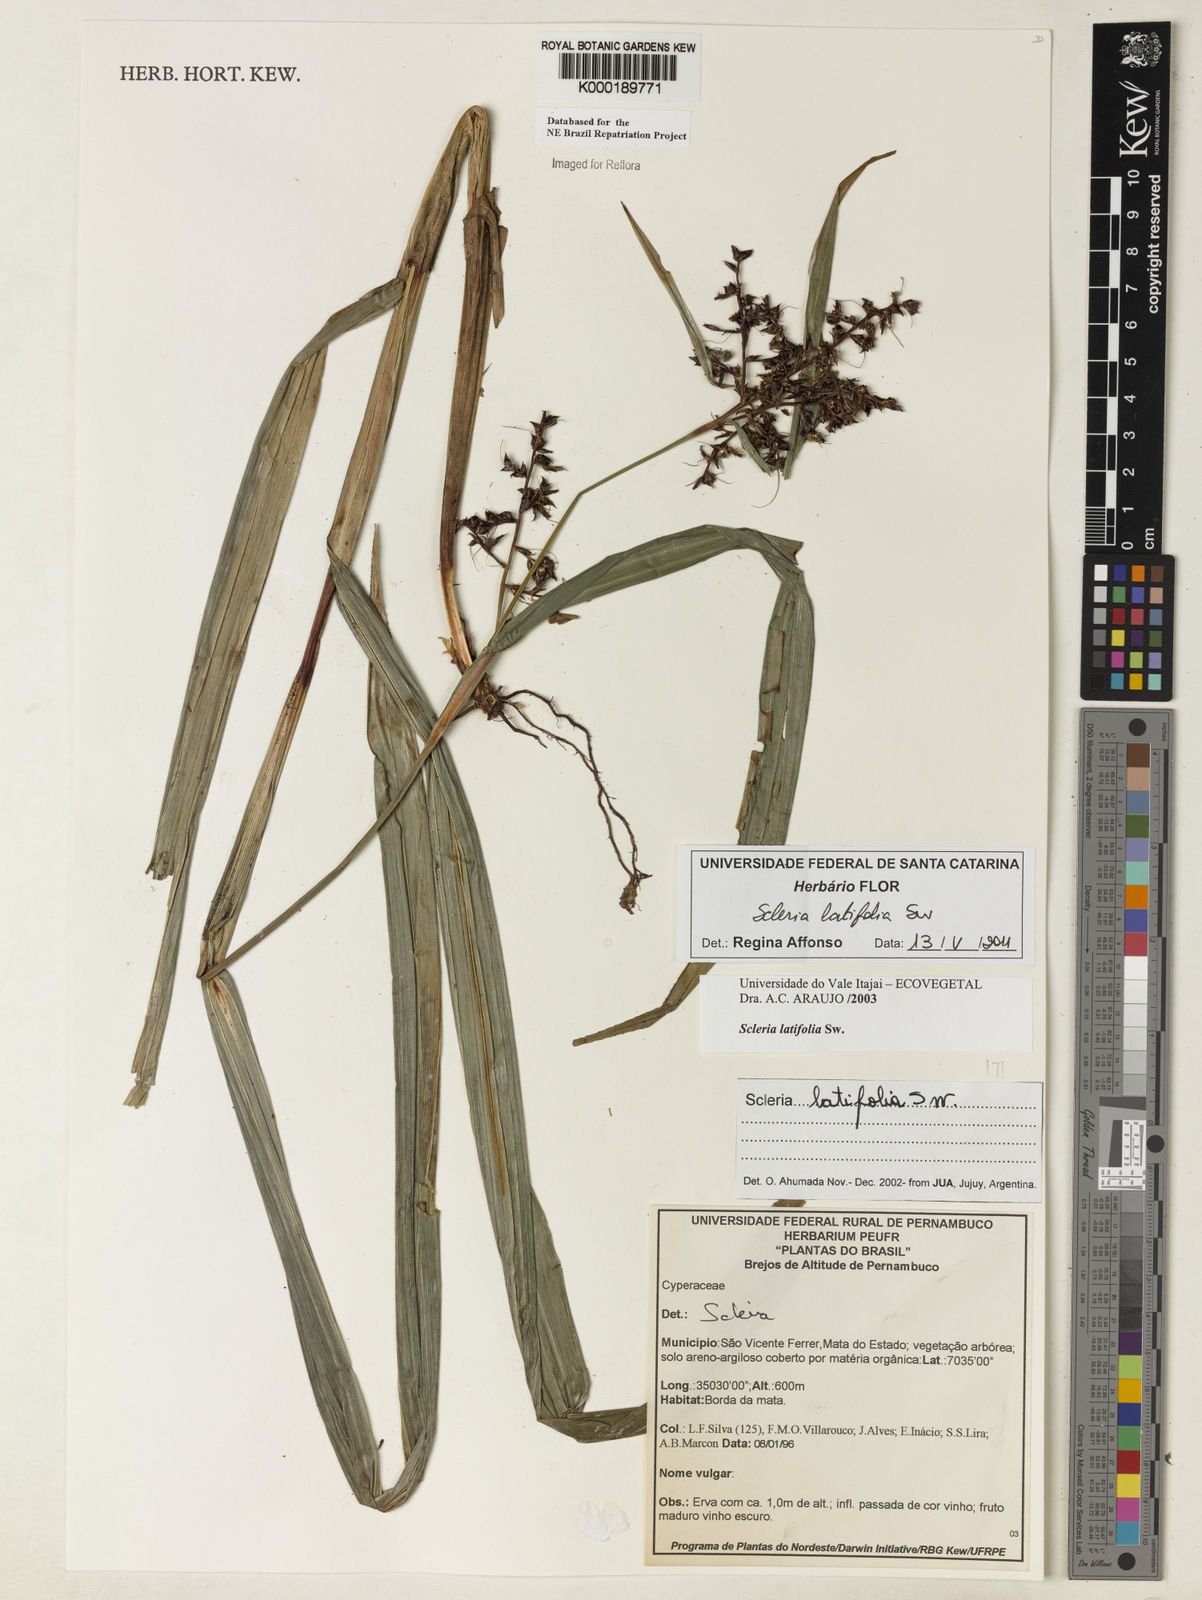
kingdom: Plantae
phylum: Tracheophyta
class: Liliopsida
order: Poales
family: Cyperaceae
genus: Scleria
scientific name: Scleria latifolia
